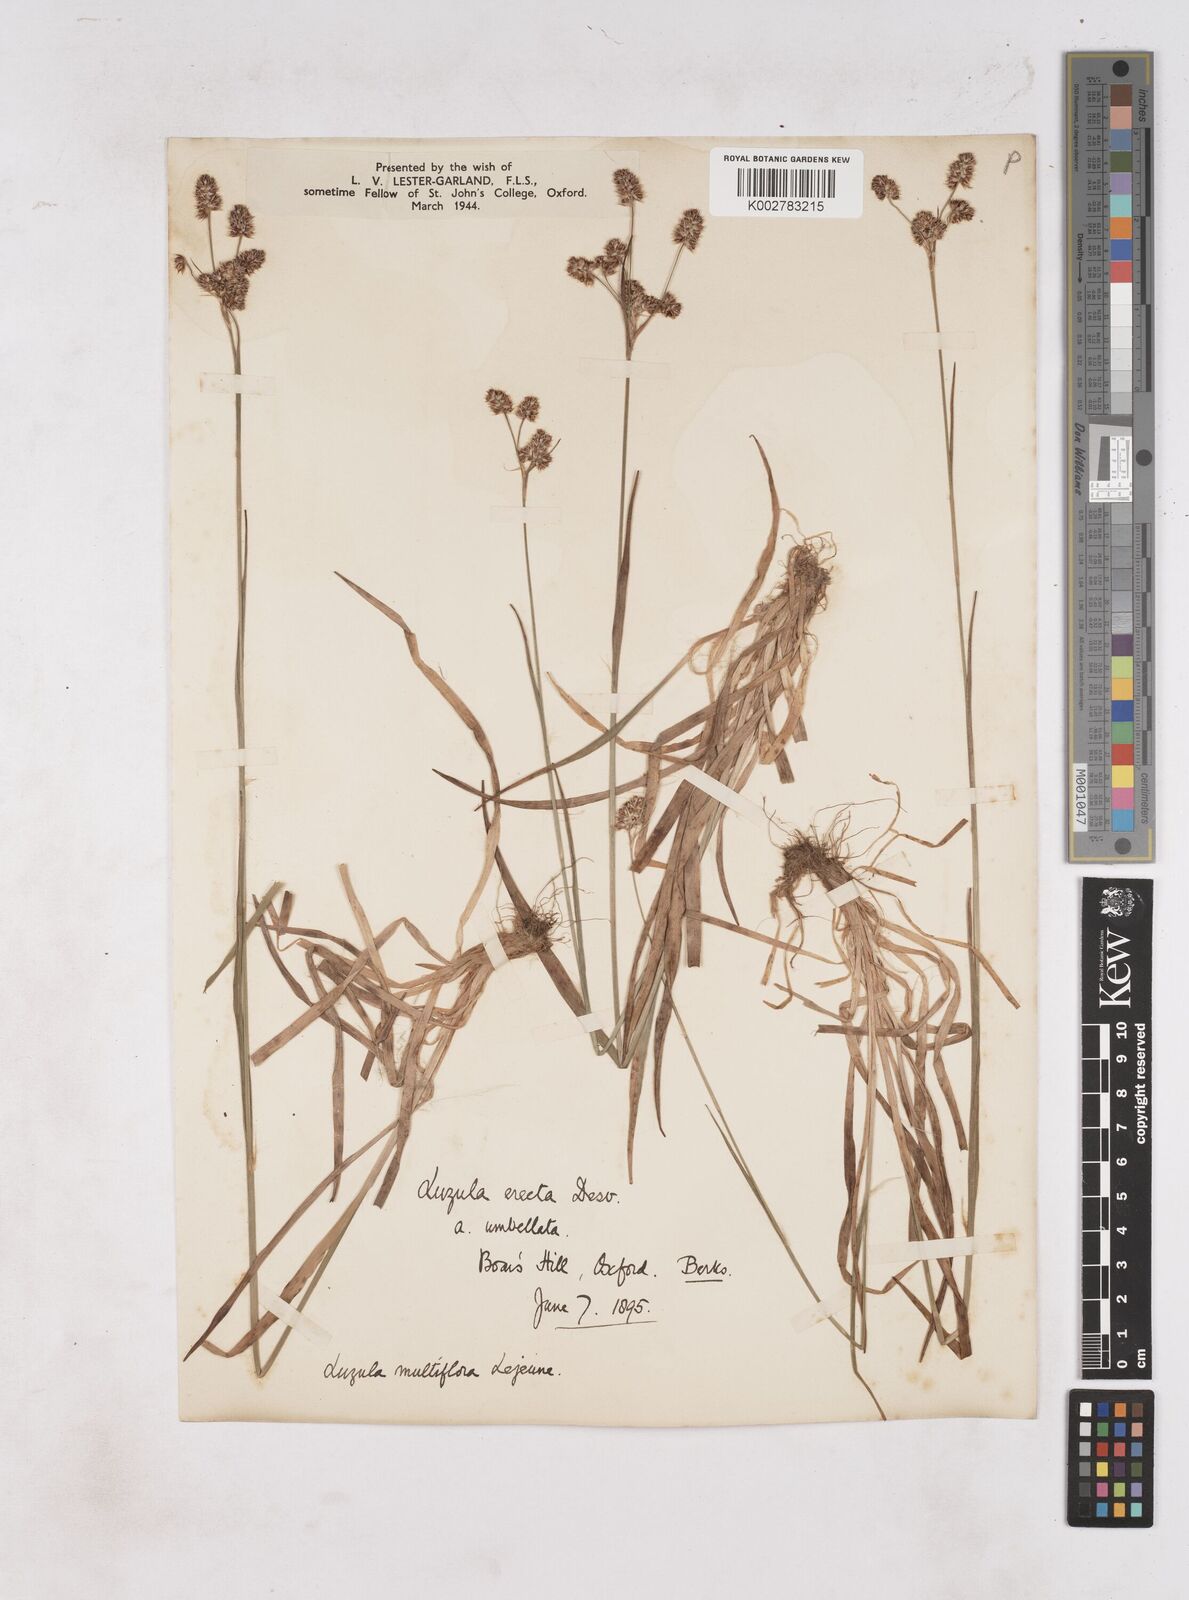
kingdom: Plantae
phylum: Tracheophyta
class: Liliopsida
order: Poales
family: Juncaceae
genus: Luzula
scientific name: Luzula multiflora
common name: Heath wood-rush
